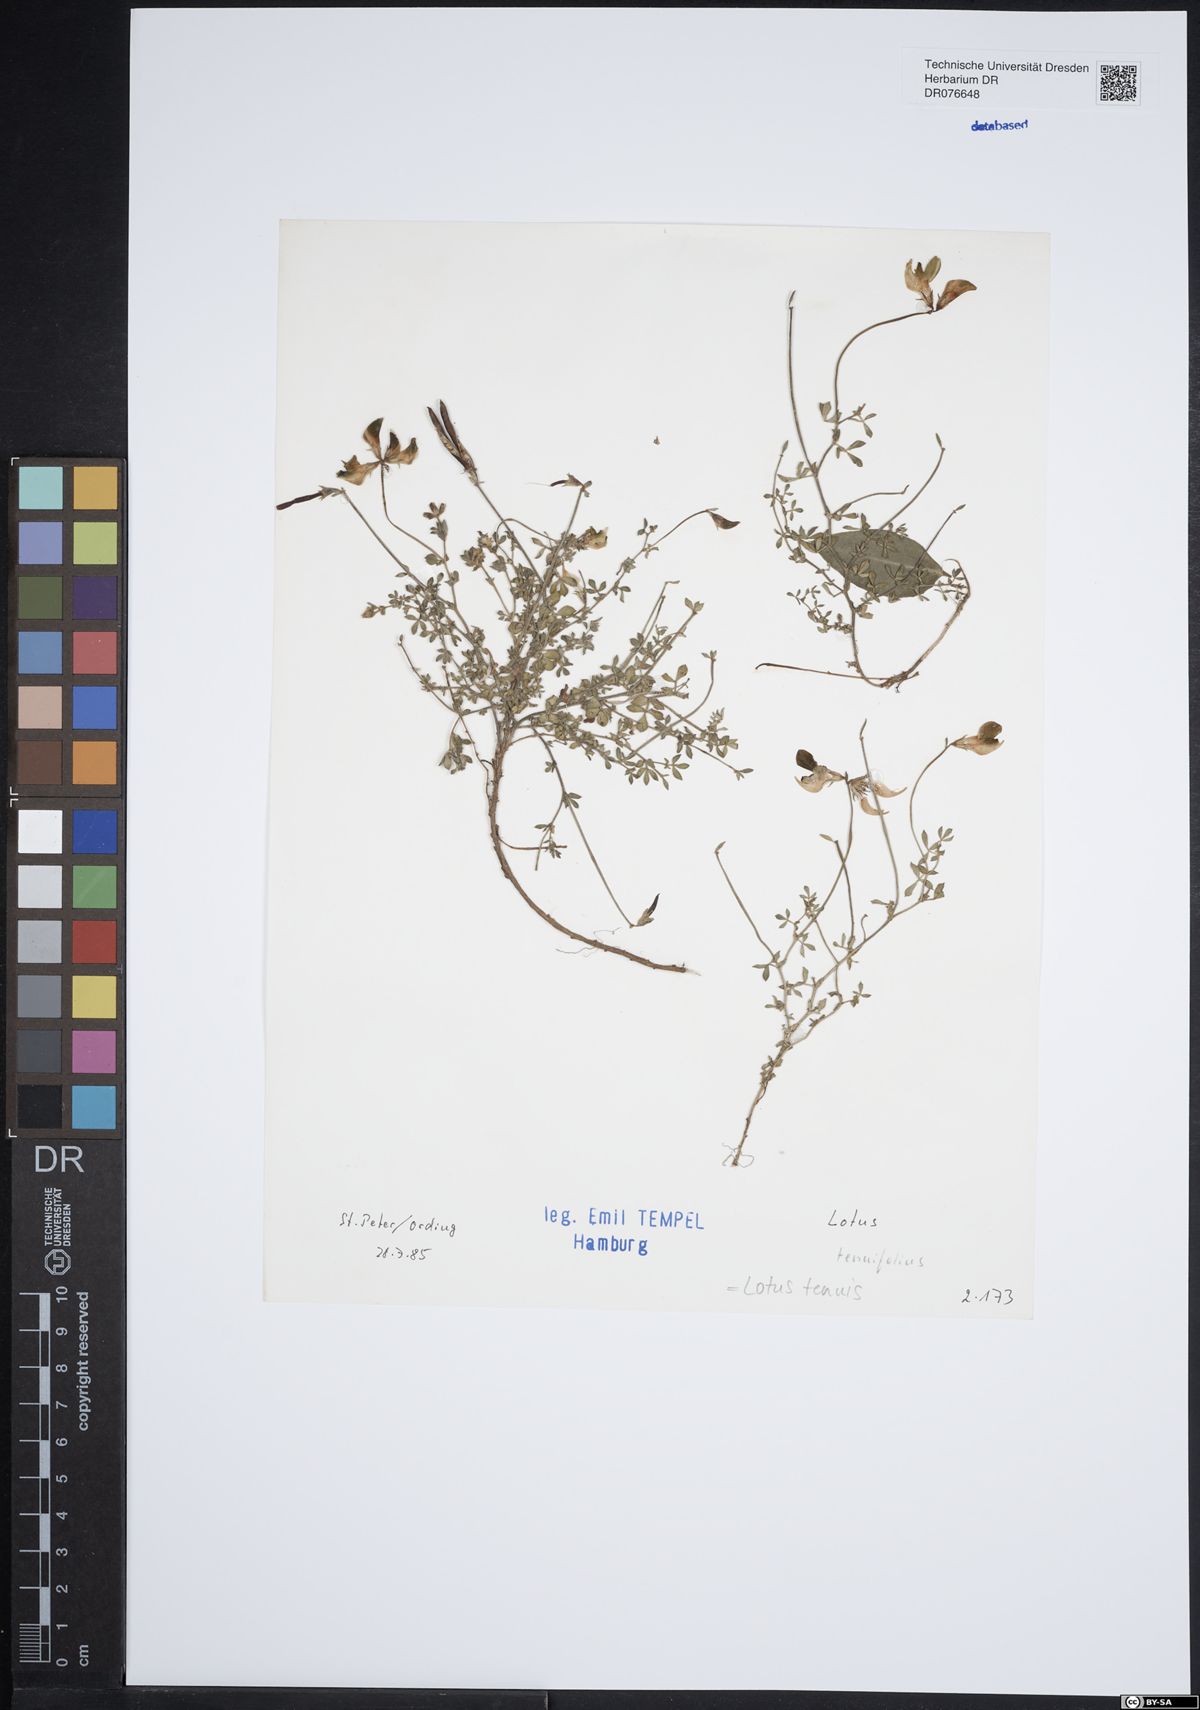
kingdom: Plantae
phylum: Tracheophyta
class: Magnoliopsida
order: Fabales
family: Fabaceae
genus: Lotus
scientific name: Lotus tenuis
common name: Narrow-leaved bird's-foot-trefoil
